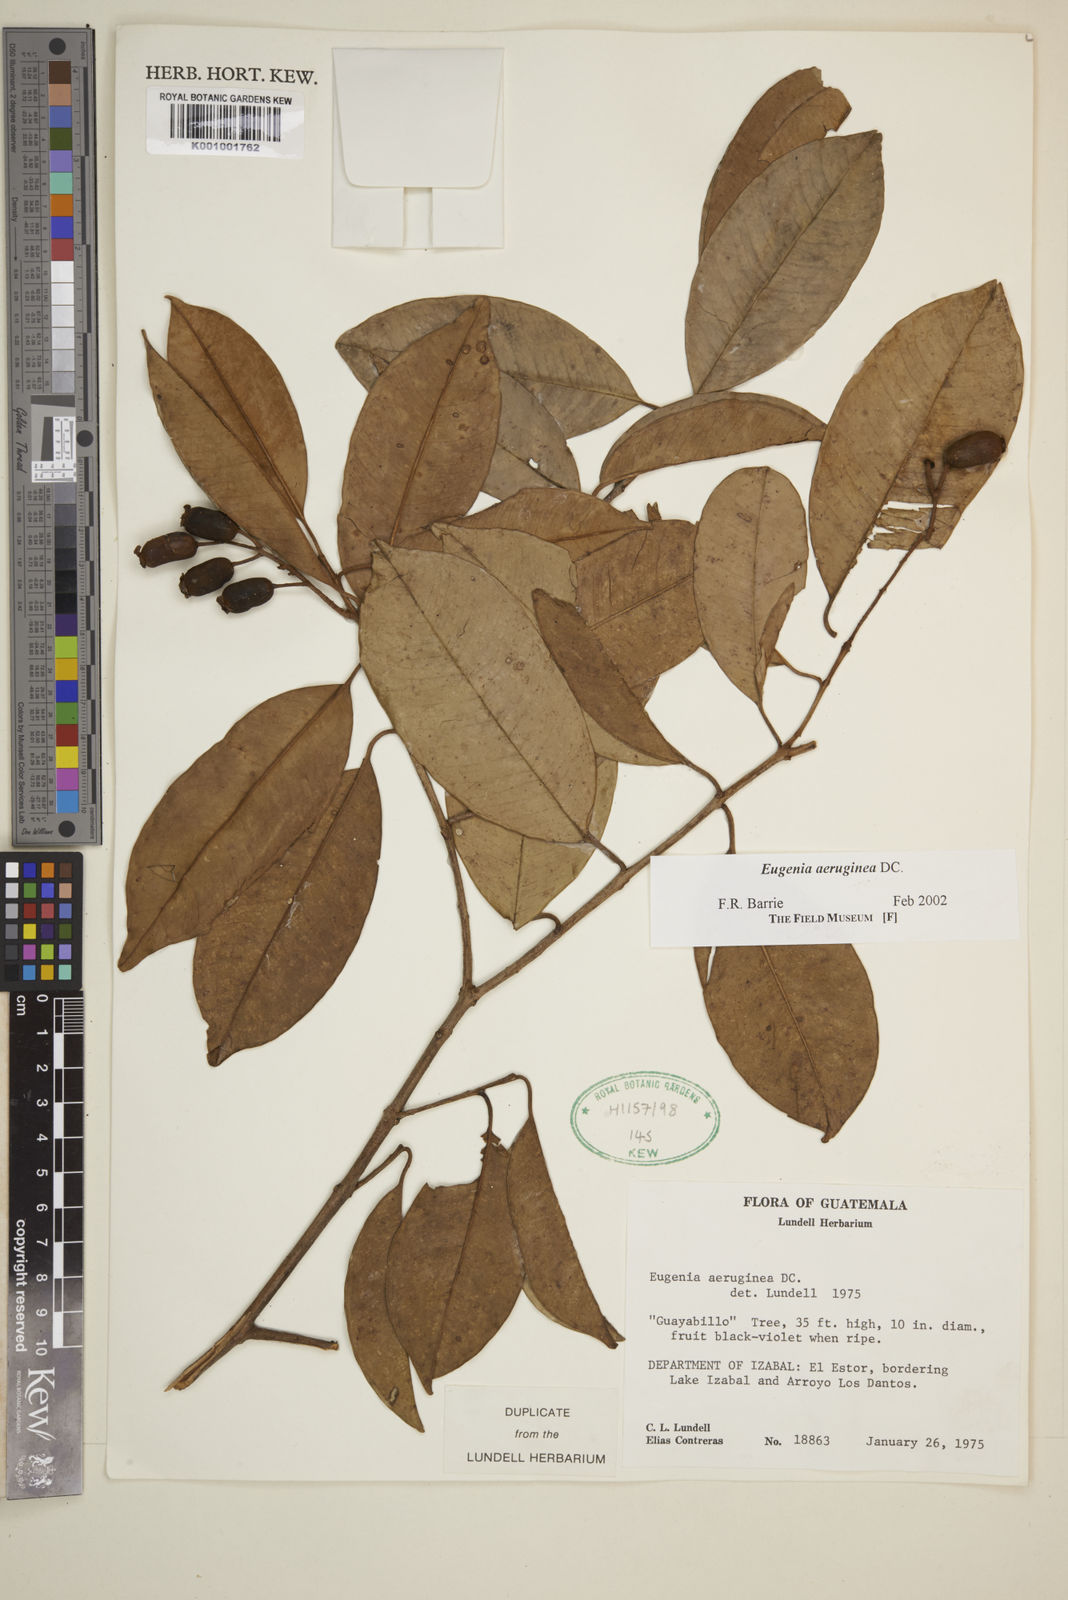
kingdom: Plantae
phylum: Tracheophyta
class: Magnoliopsida
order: Myrtales
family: Myrtaceae
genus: Eugenia
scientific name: Eugenia aeruginea
